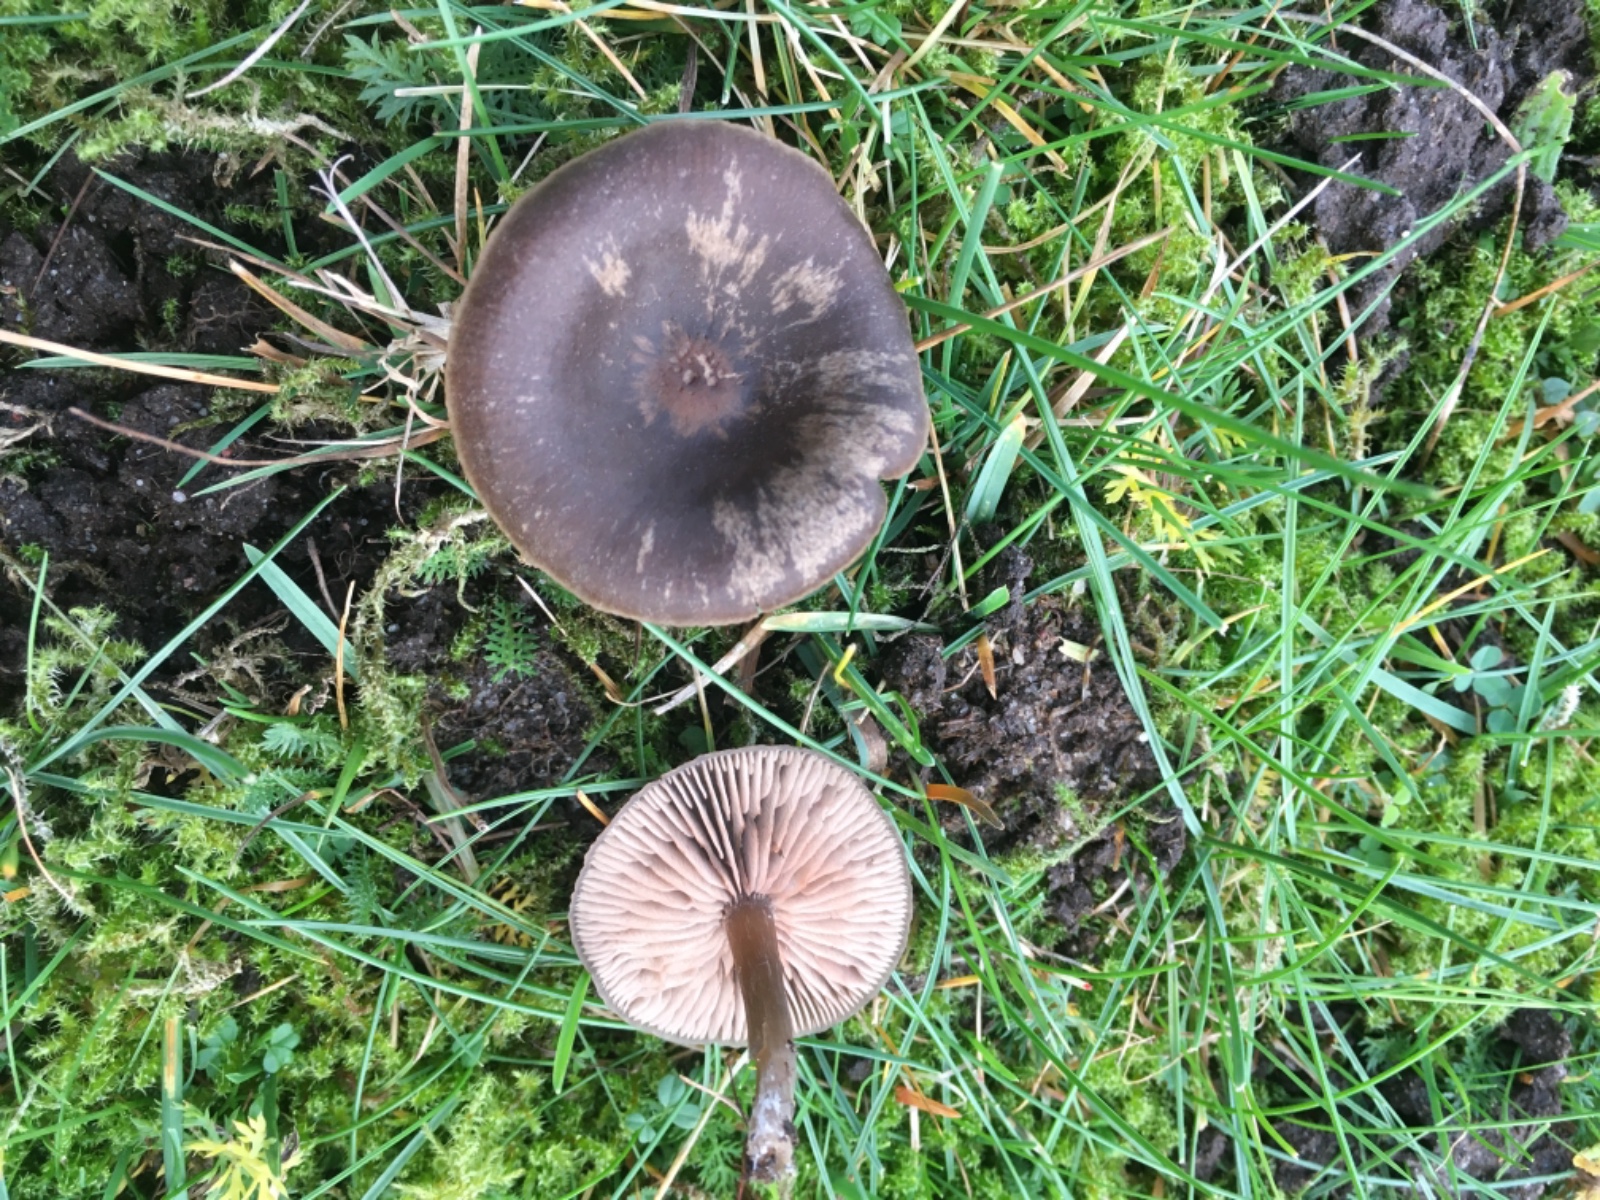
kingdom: Fungi
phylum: Basidiomycota
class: Agaricomycetes
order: Agaricales
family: Entolomataceae
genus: Entoloma
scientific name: Entoloma
